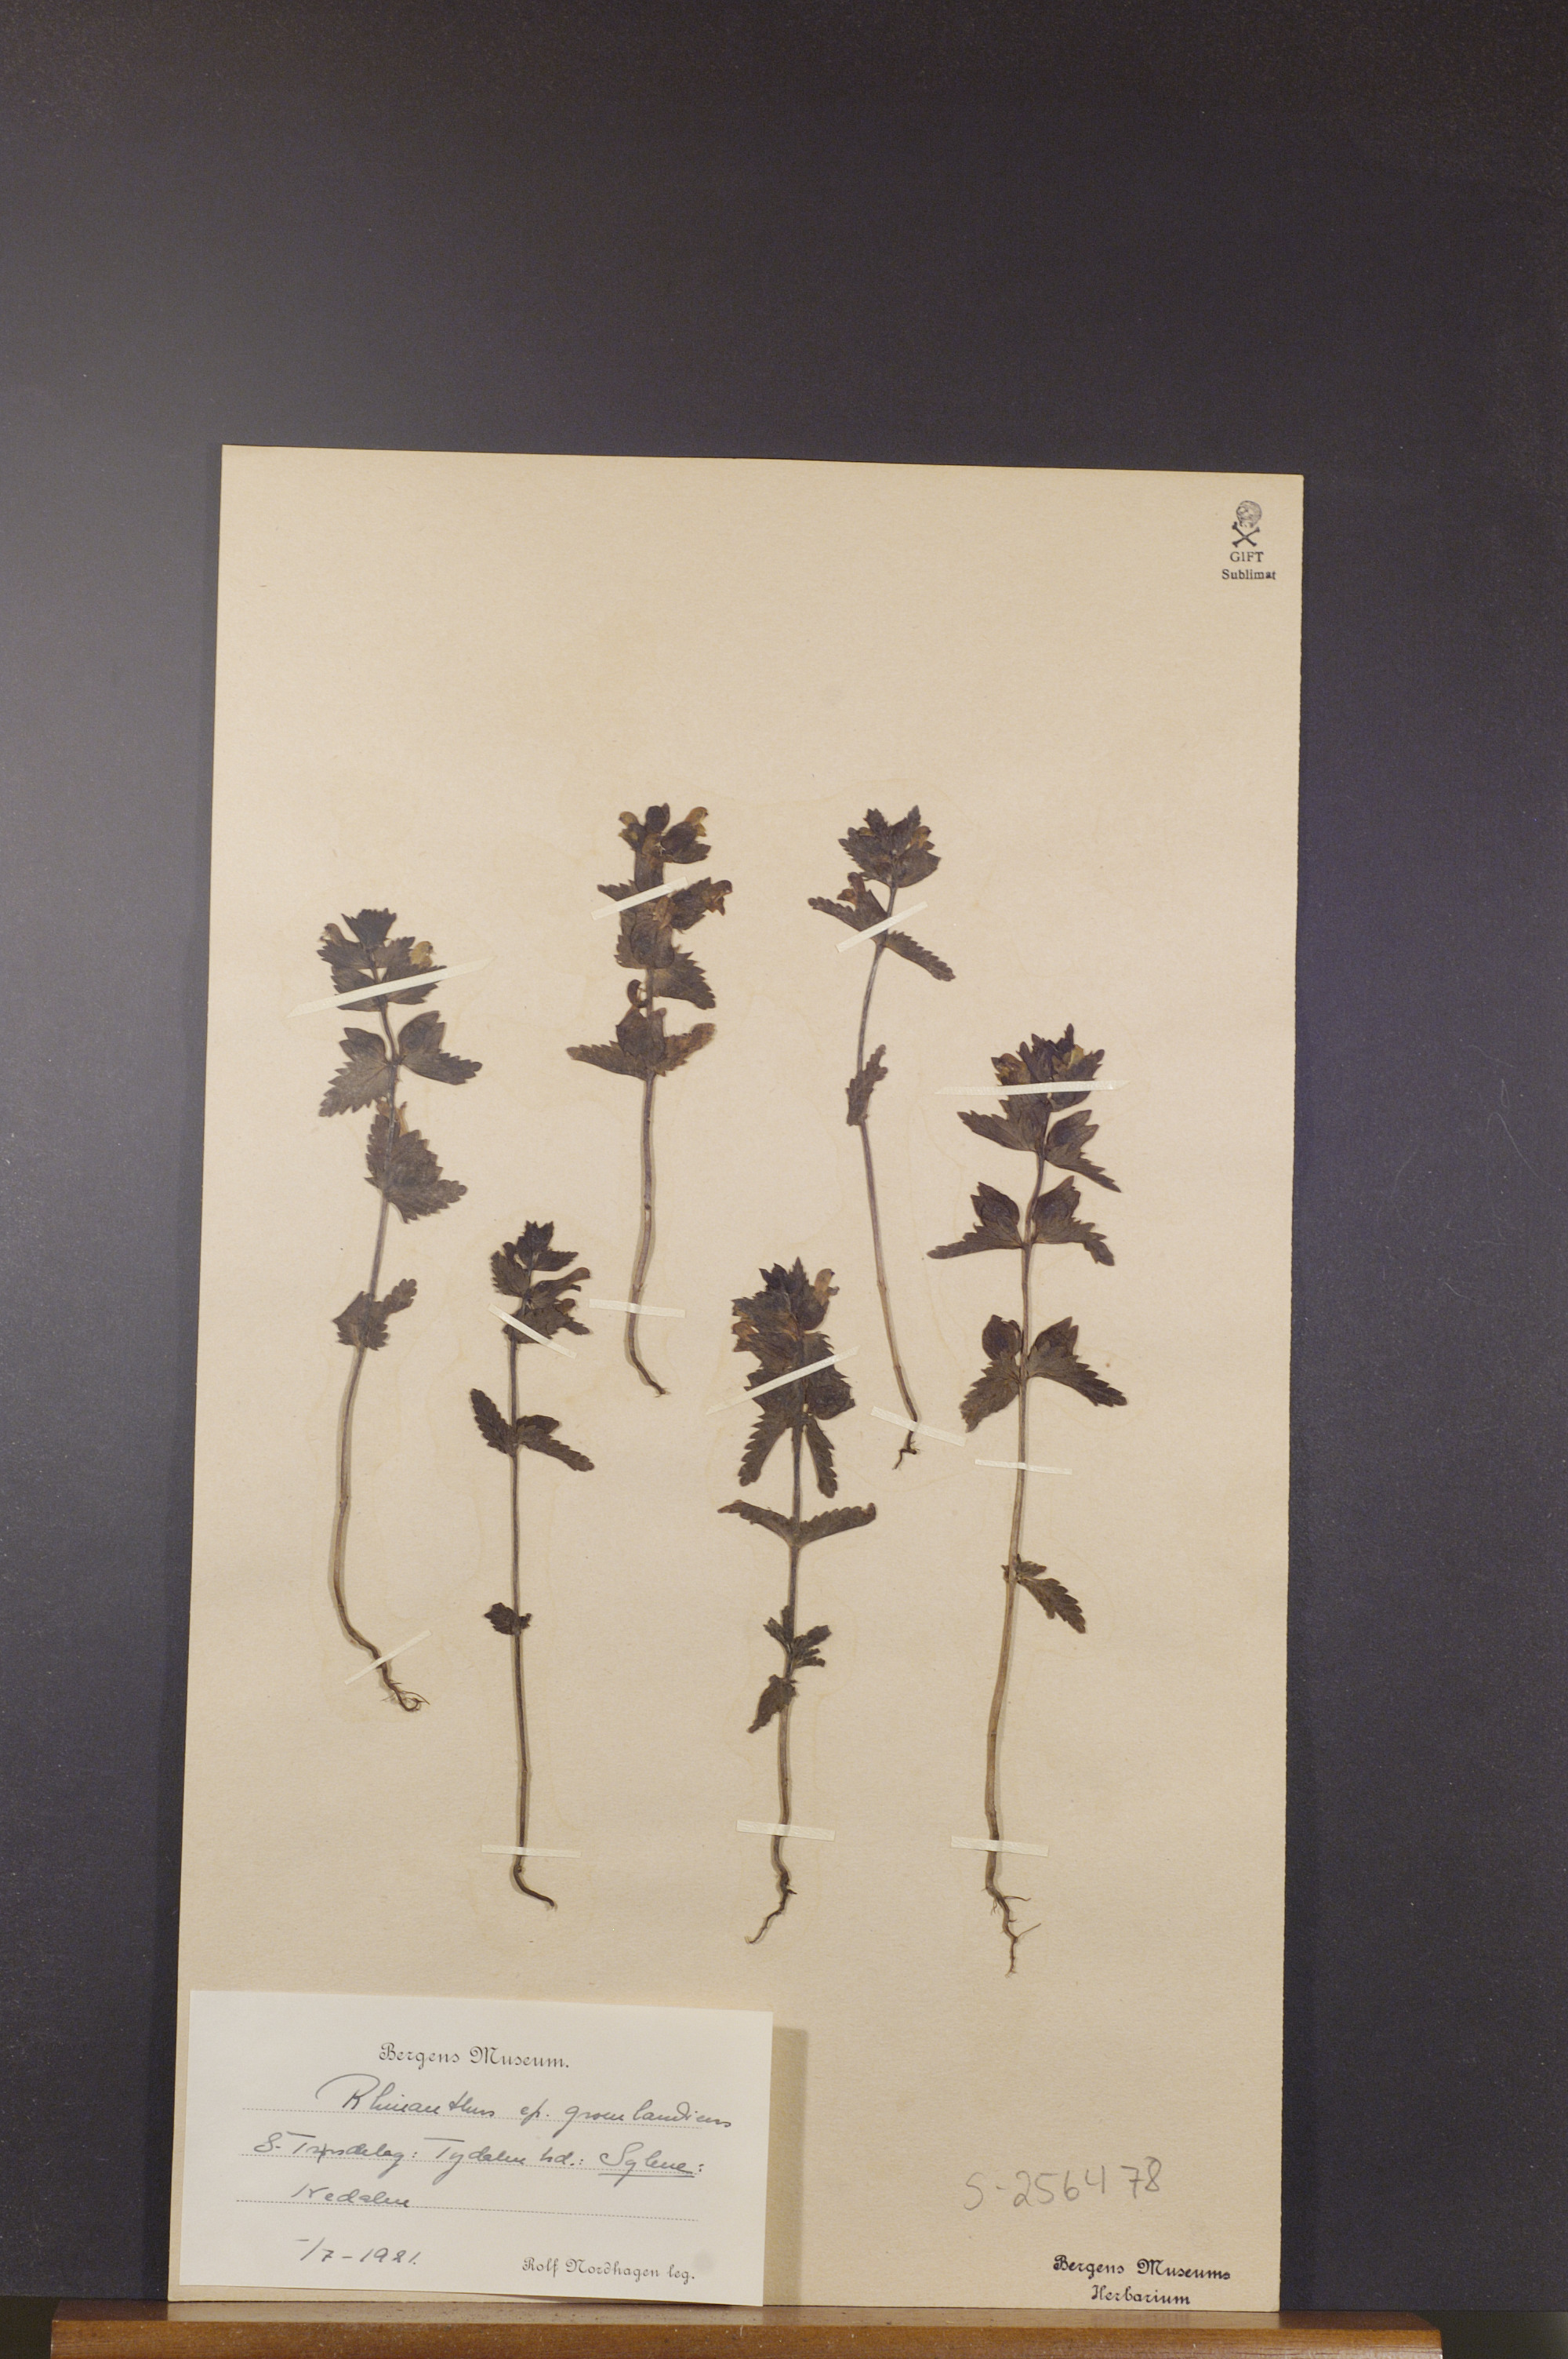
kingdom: Plantae
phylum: Tracheophyta
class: Magnoliopsida
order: Lamiales
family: Orobanchaceae
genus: Rhinanthus
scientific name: Rhinanthus groenlandicus
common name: Little yellow rattle
